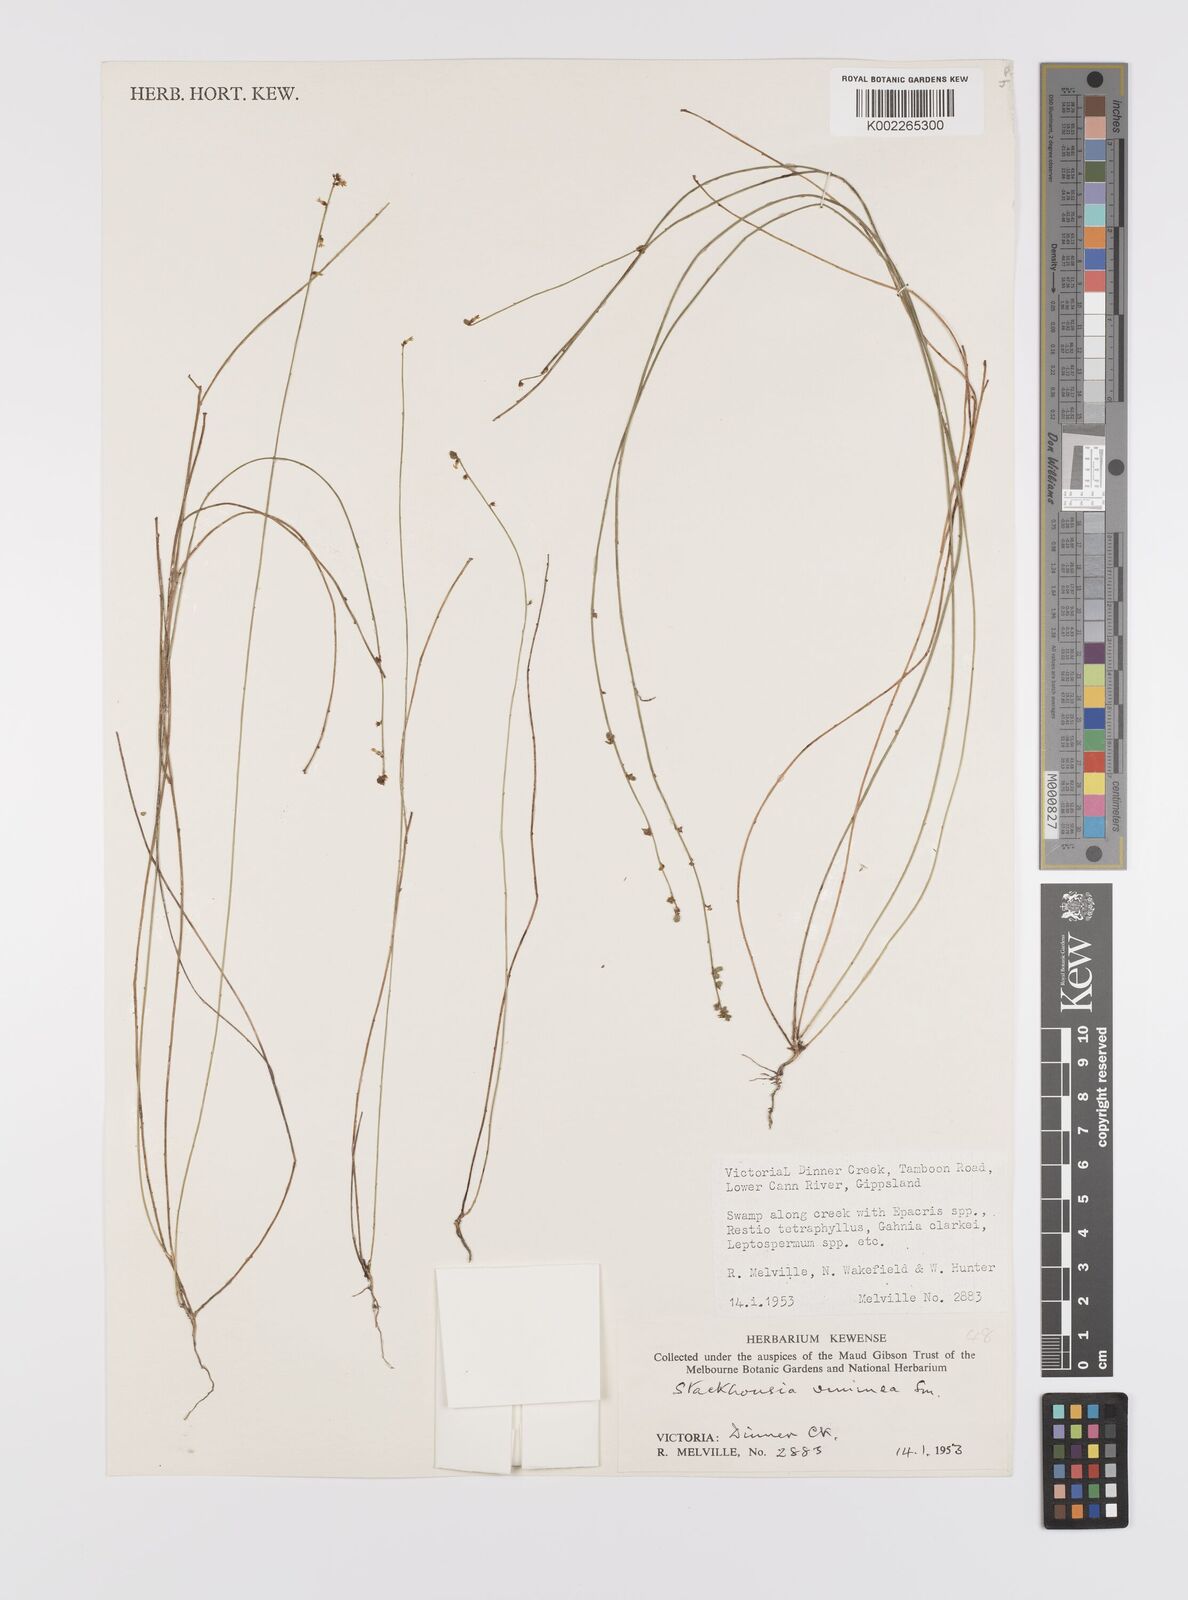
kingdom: Plantae
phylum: Tracheophyta
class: Magnoliopsida
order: Celastrales
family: Celastraceae
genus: Stackhousia
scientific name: Stackhousia viminea
